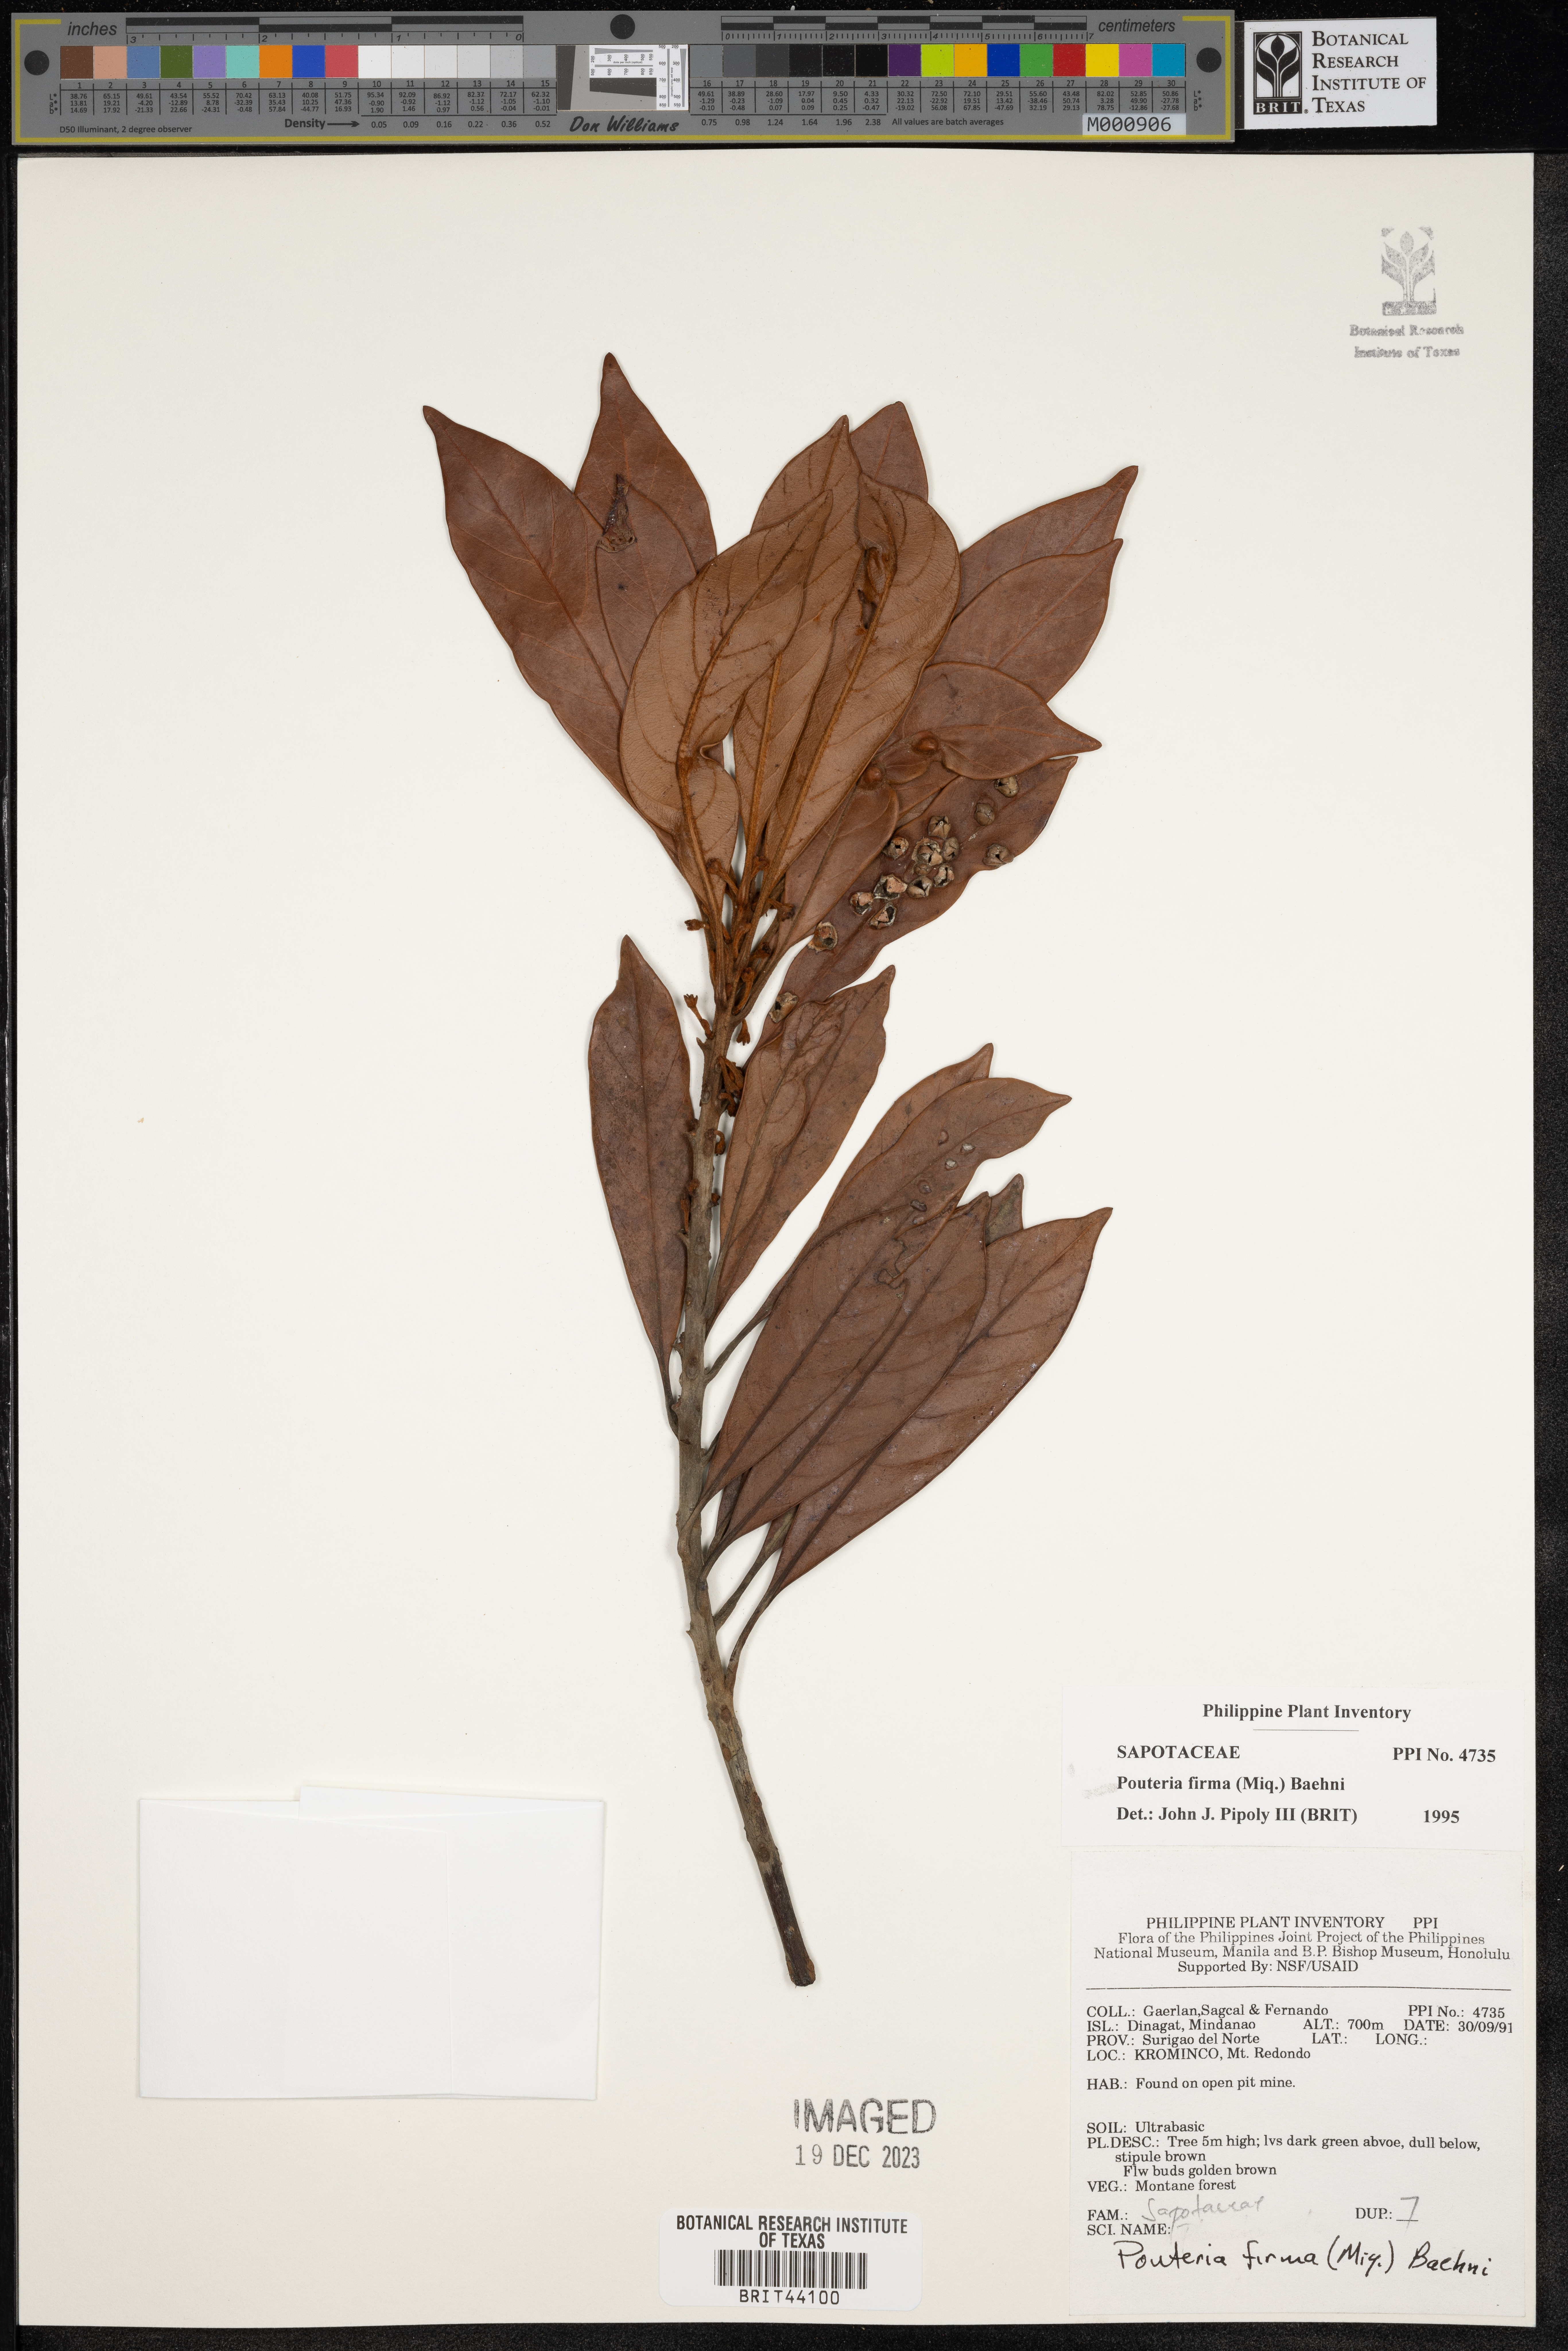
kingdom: Plantae
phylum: Tracheophyta
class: Magnoliopsida
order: Ericales
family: Sapotaceae
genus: Pleioluma
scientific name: Pleioluma firma
